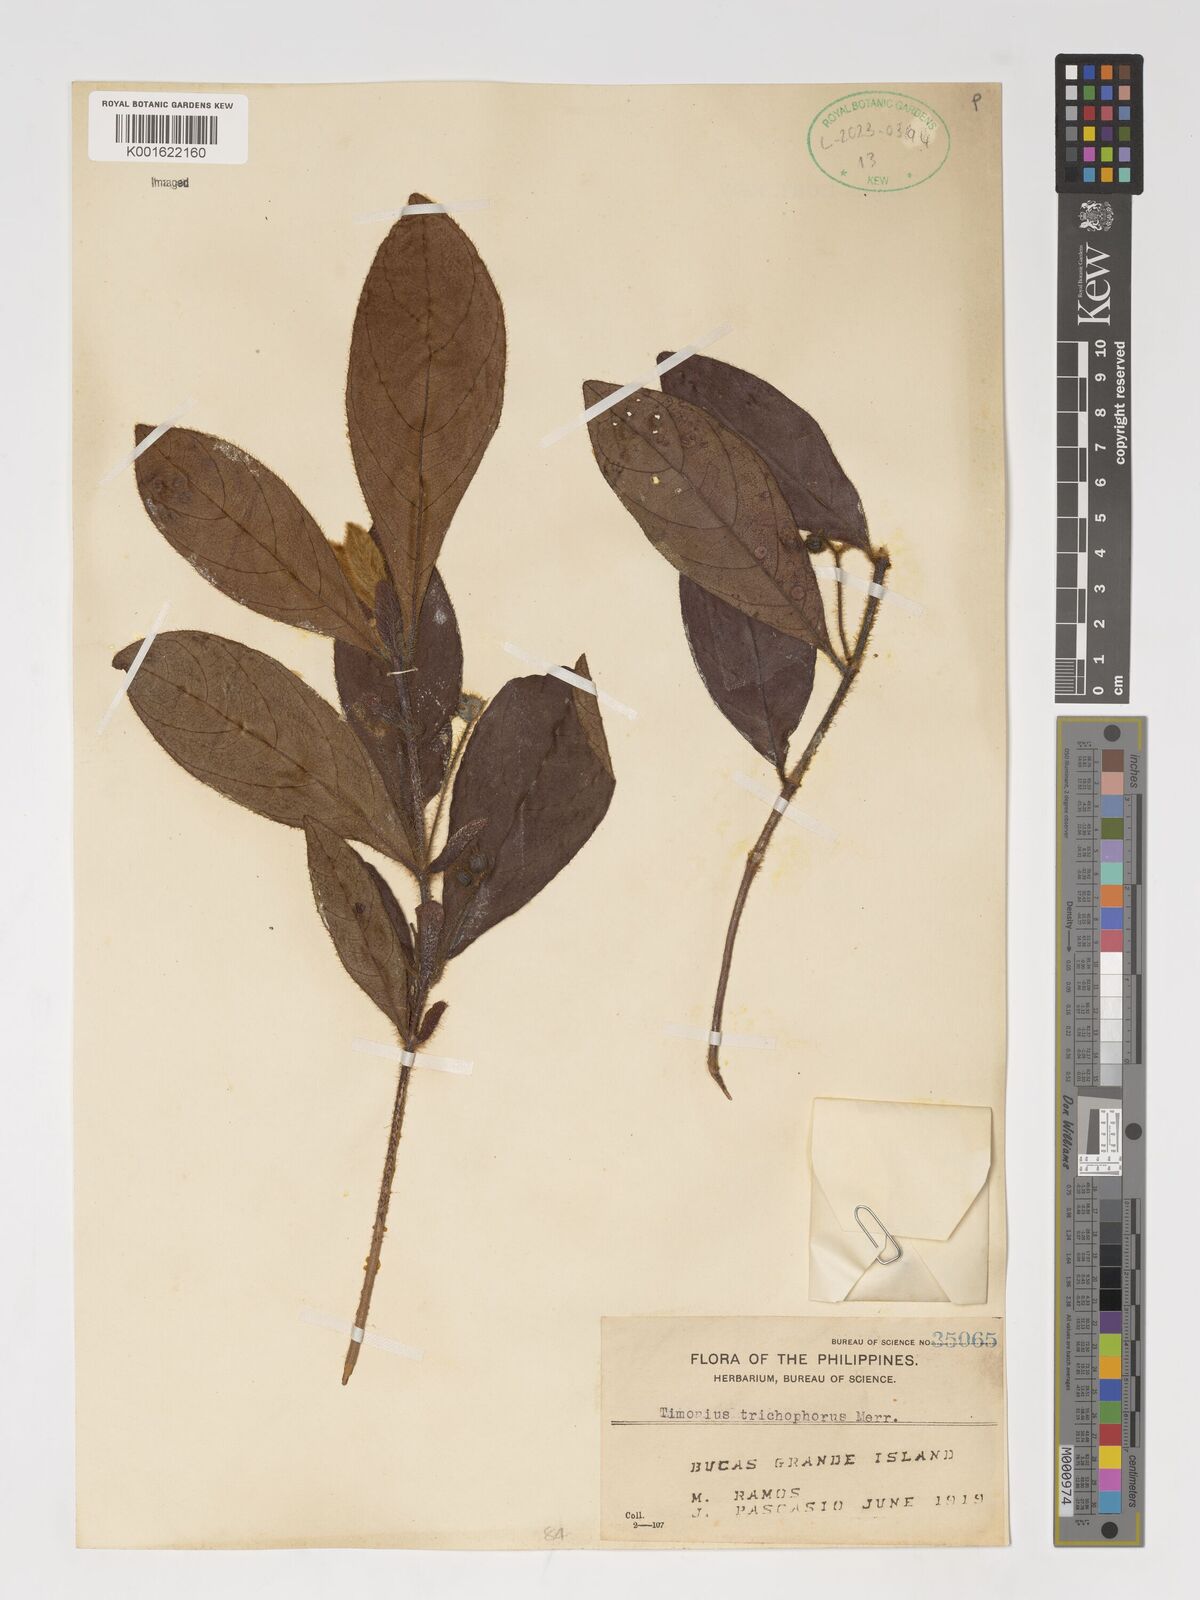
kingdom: Plantae
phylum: Tracheophyta
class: Magnoliopsida
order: Gentianales
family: Rubiaceae
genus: Timonius
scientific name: Timonius trichophorus
